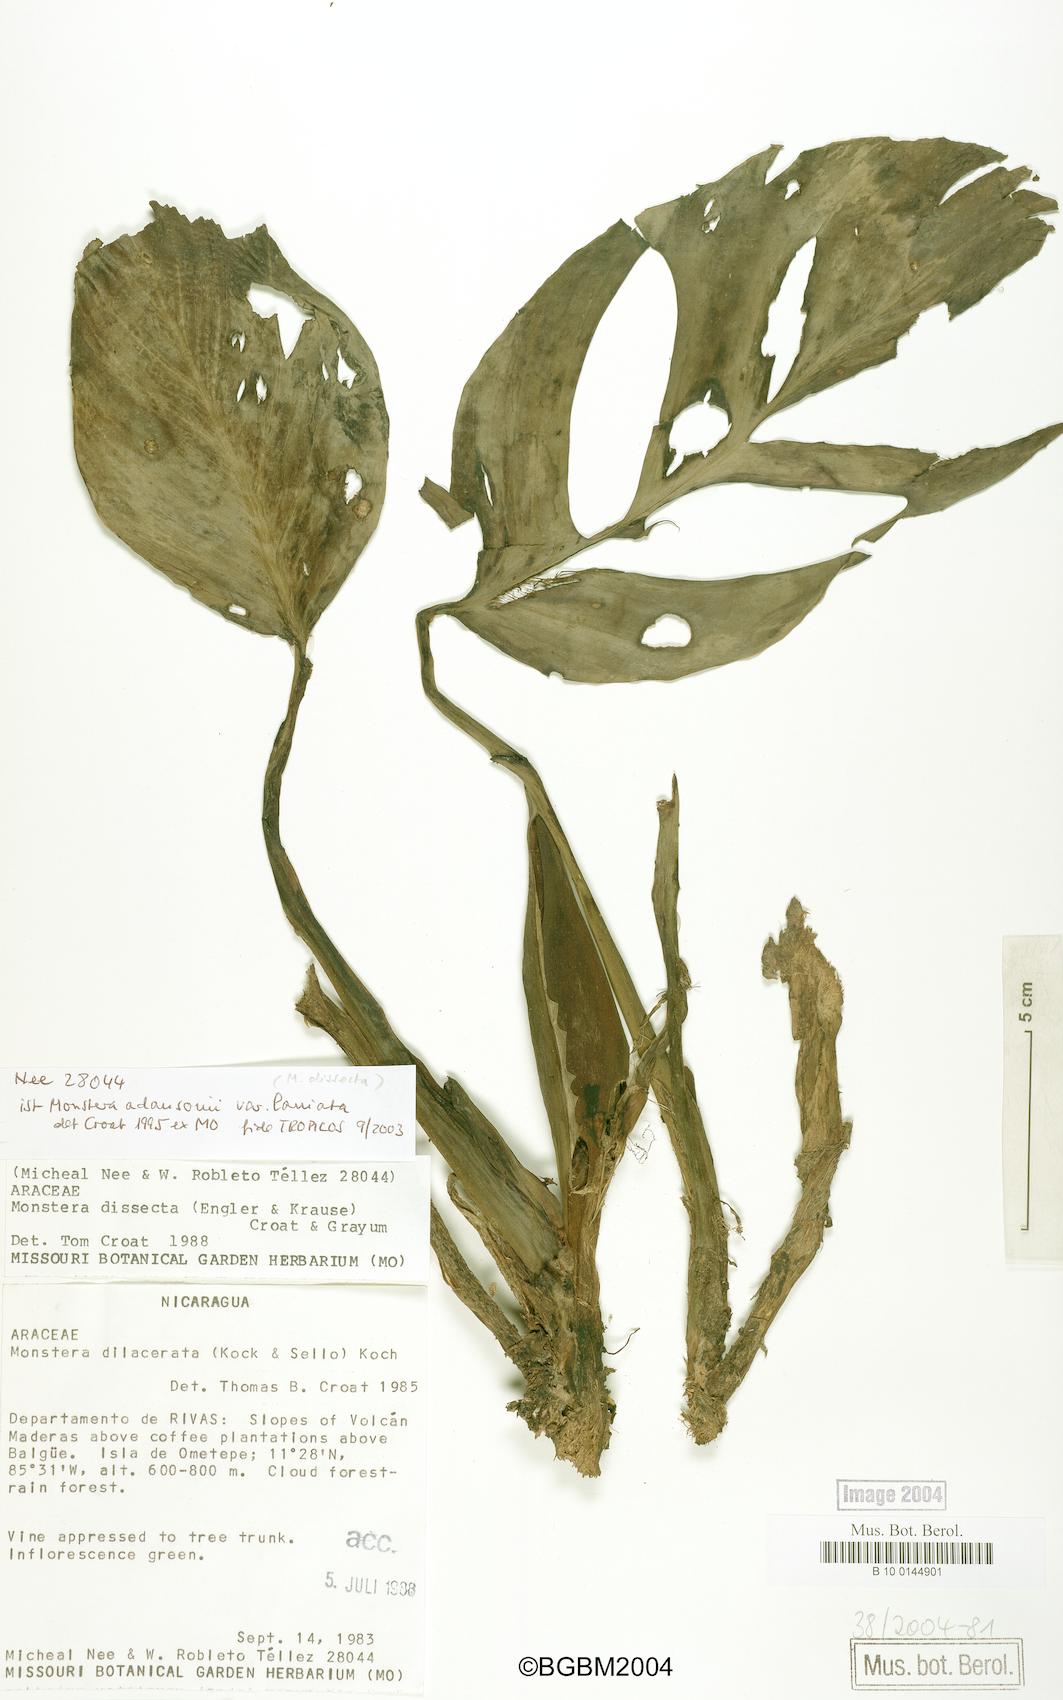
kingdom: Plantae
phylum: Tracheophyta
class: Liliopsida
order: Alismatales
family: Araceae
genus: Monstera
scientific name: Monstera adansonii
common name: Tarovine
